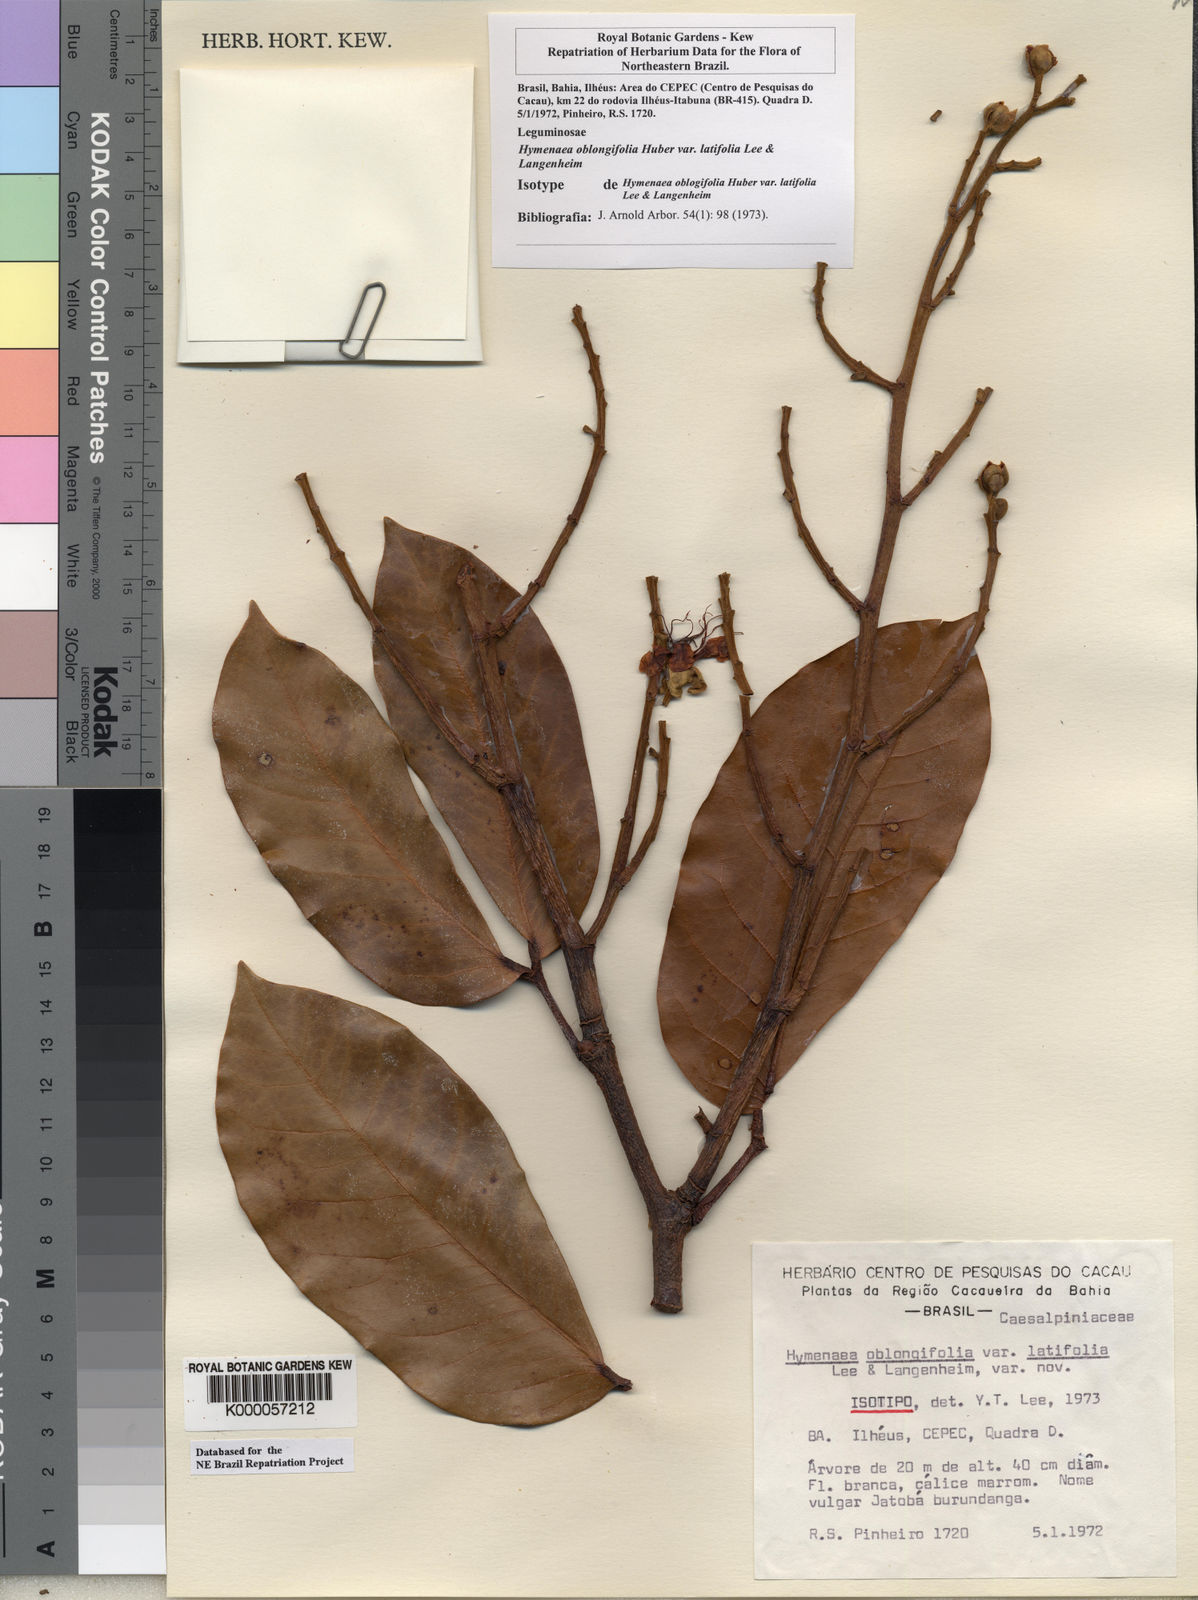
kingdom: Plantae
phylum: Tracheophyta
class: Magnoliopsida
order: Fabales
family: Fabaceae
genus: Hymenaea
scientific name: Hymenaea oblongifolia
